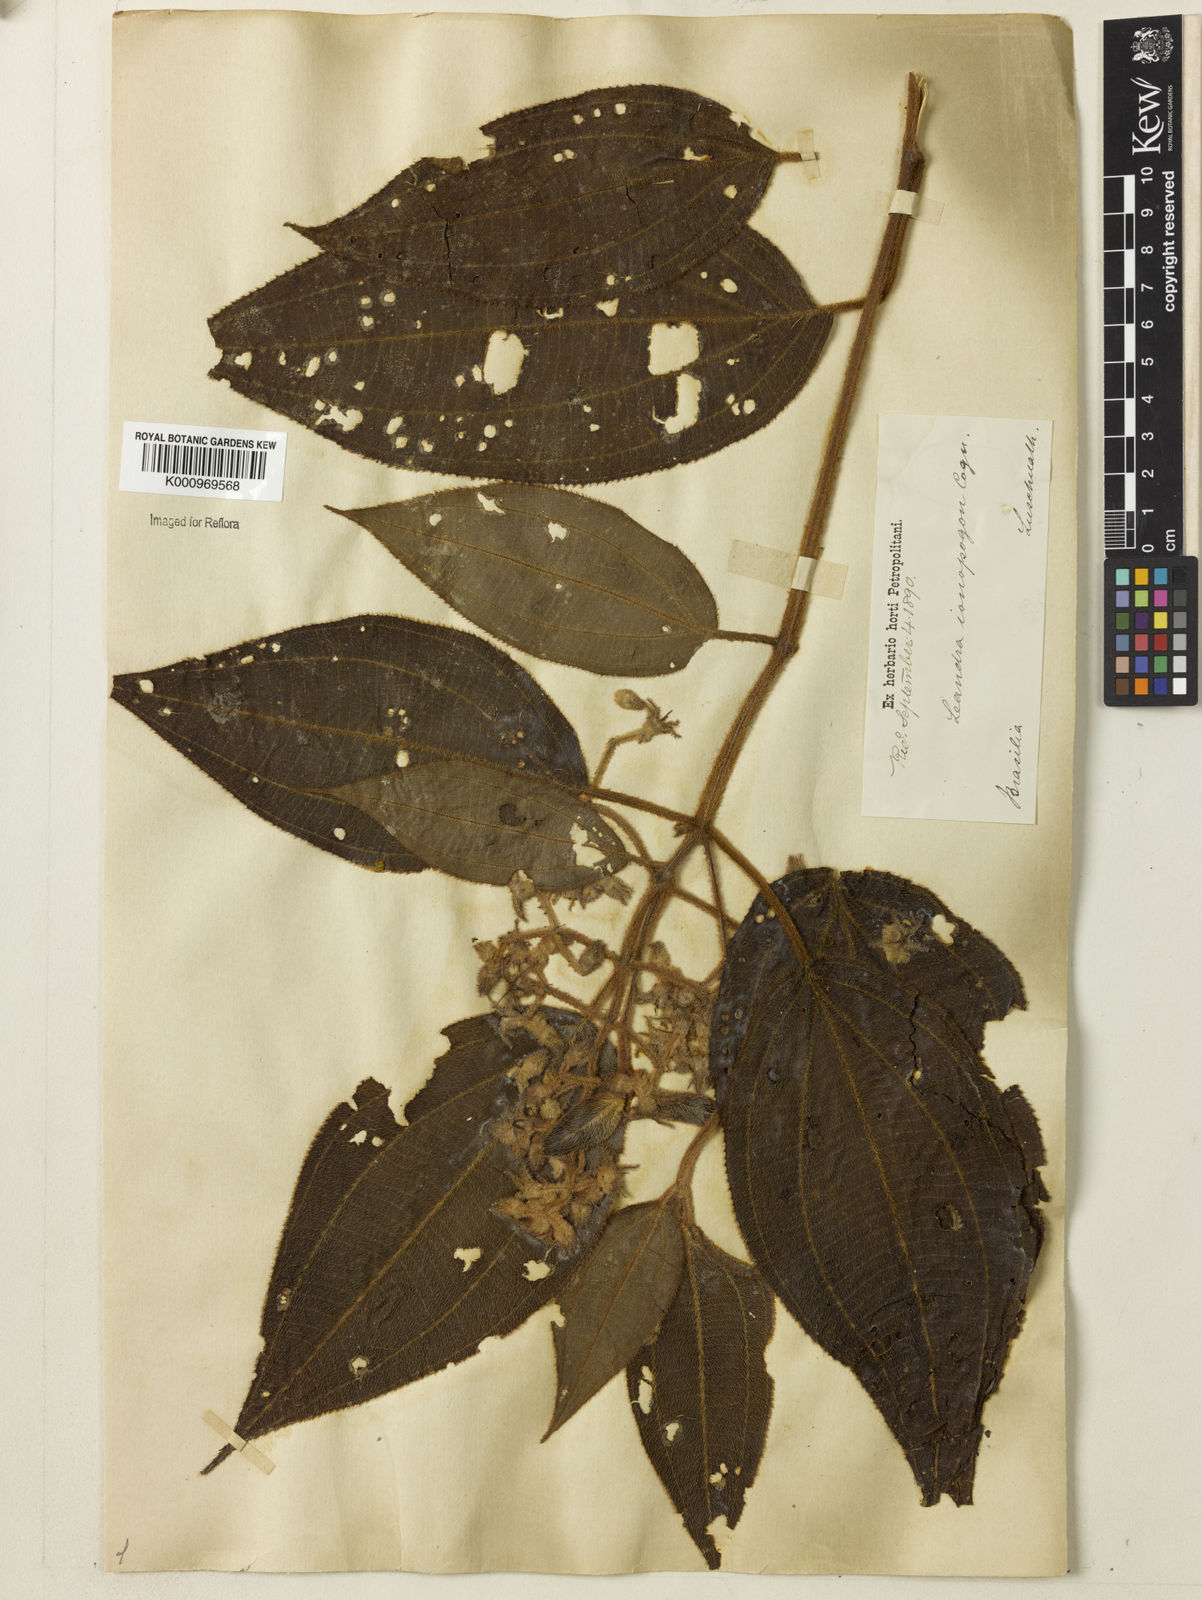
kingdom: Plantae
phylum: Tracheophyta
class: Magnoliopsida
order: Myrtales
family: Melastomataceae
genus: Miconia
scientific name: Miconia ionopogon
